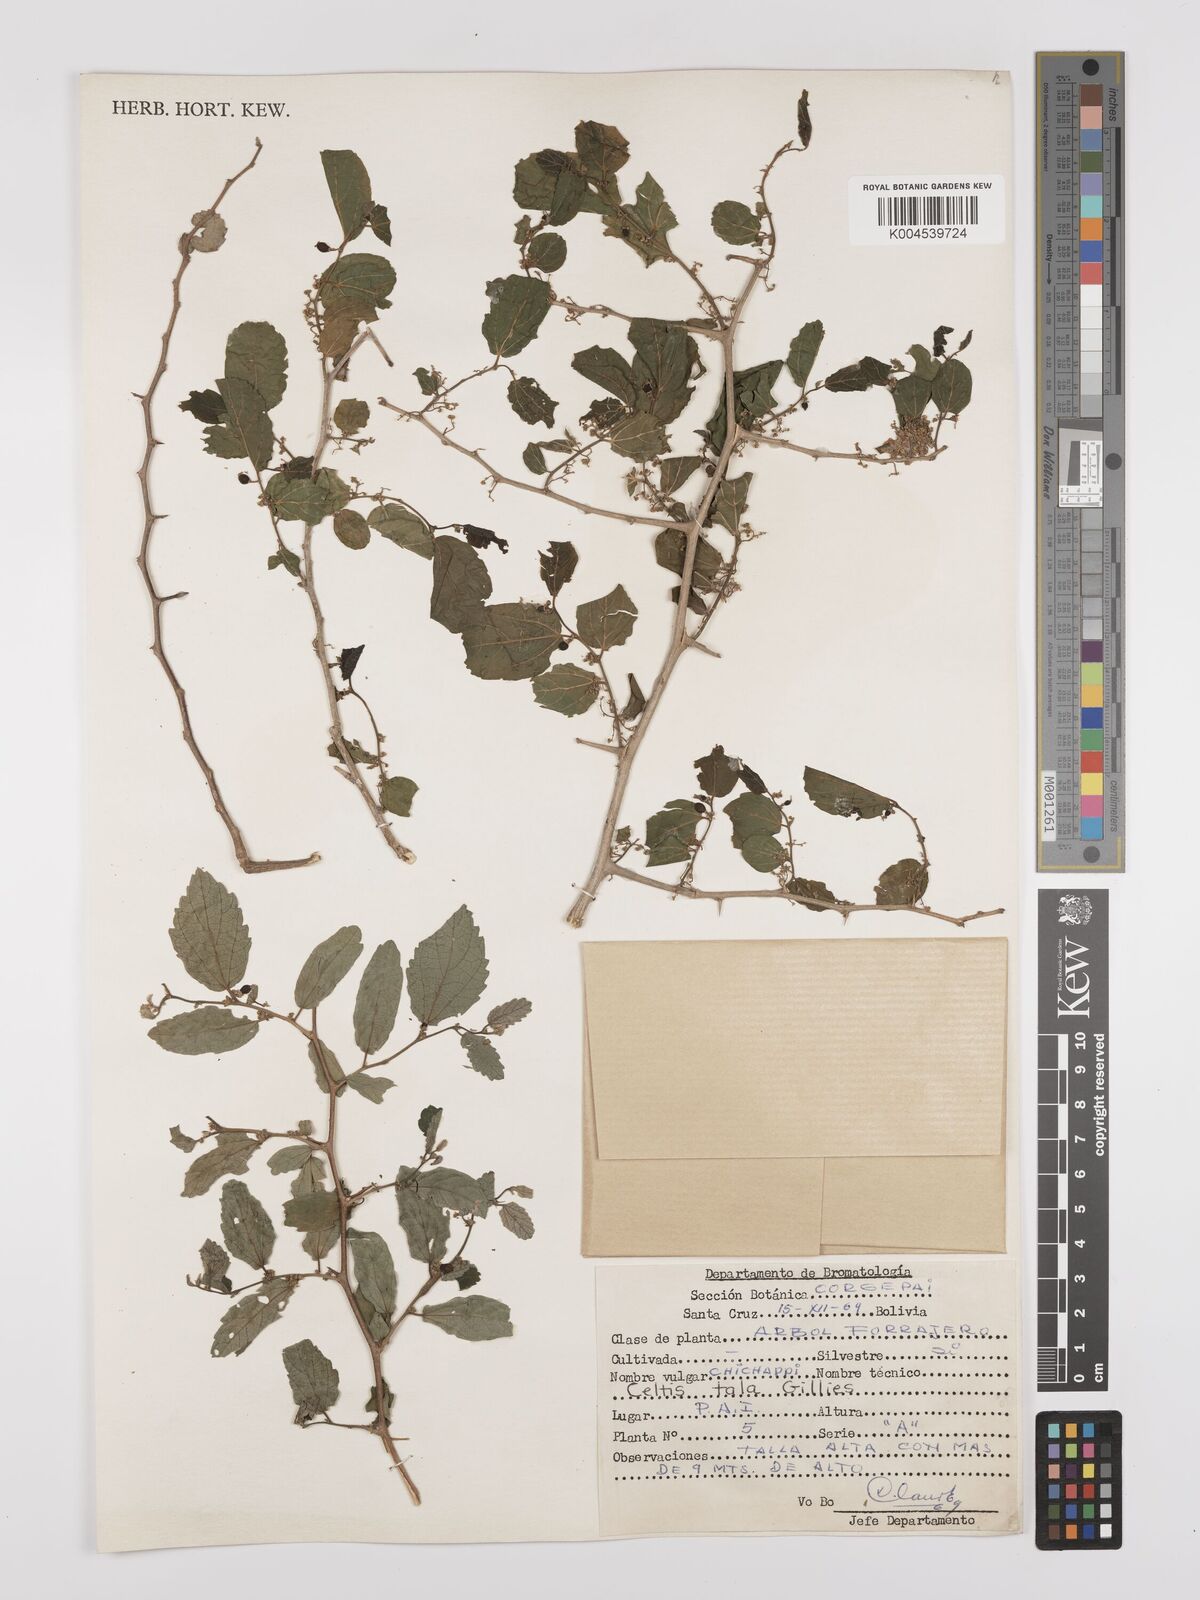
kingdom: Plantae
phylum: Tracheophyta
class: Magnoliopsida
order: Rosales
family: Cannabaceae
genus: Celtis
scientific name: Celtis tala
